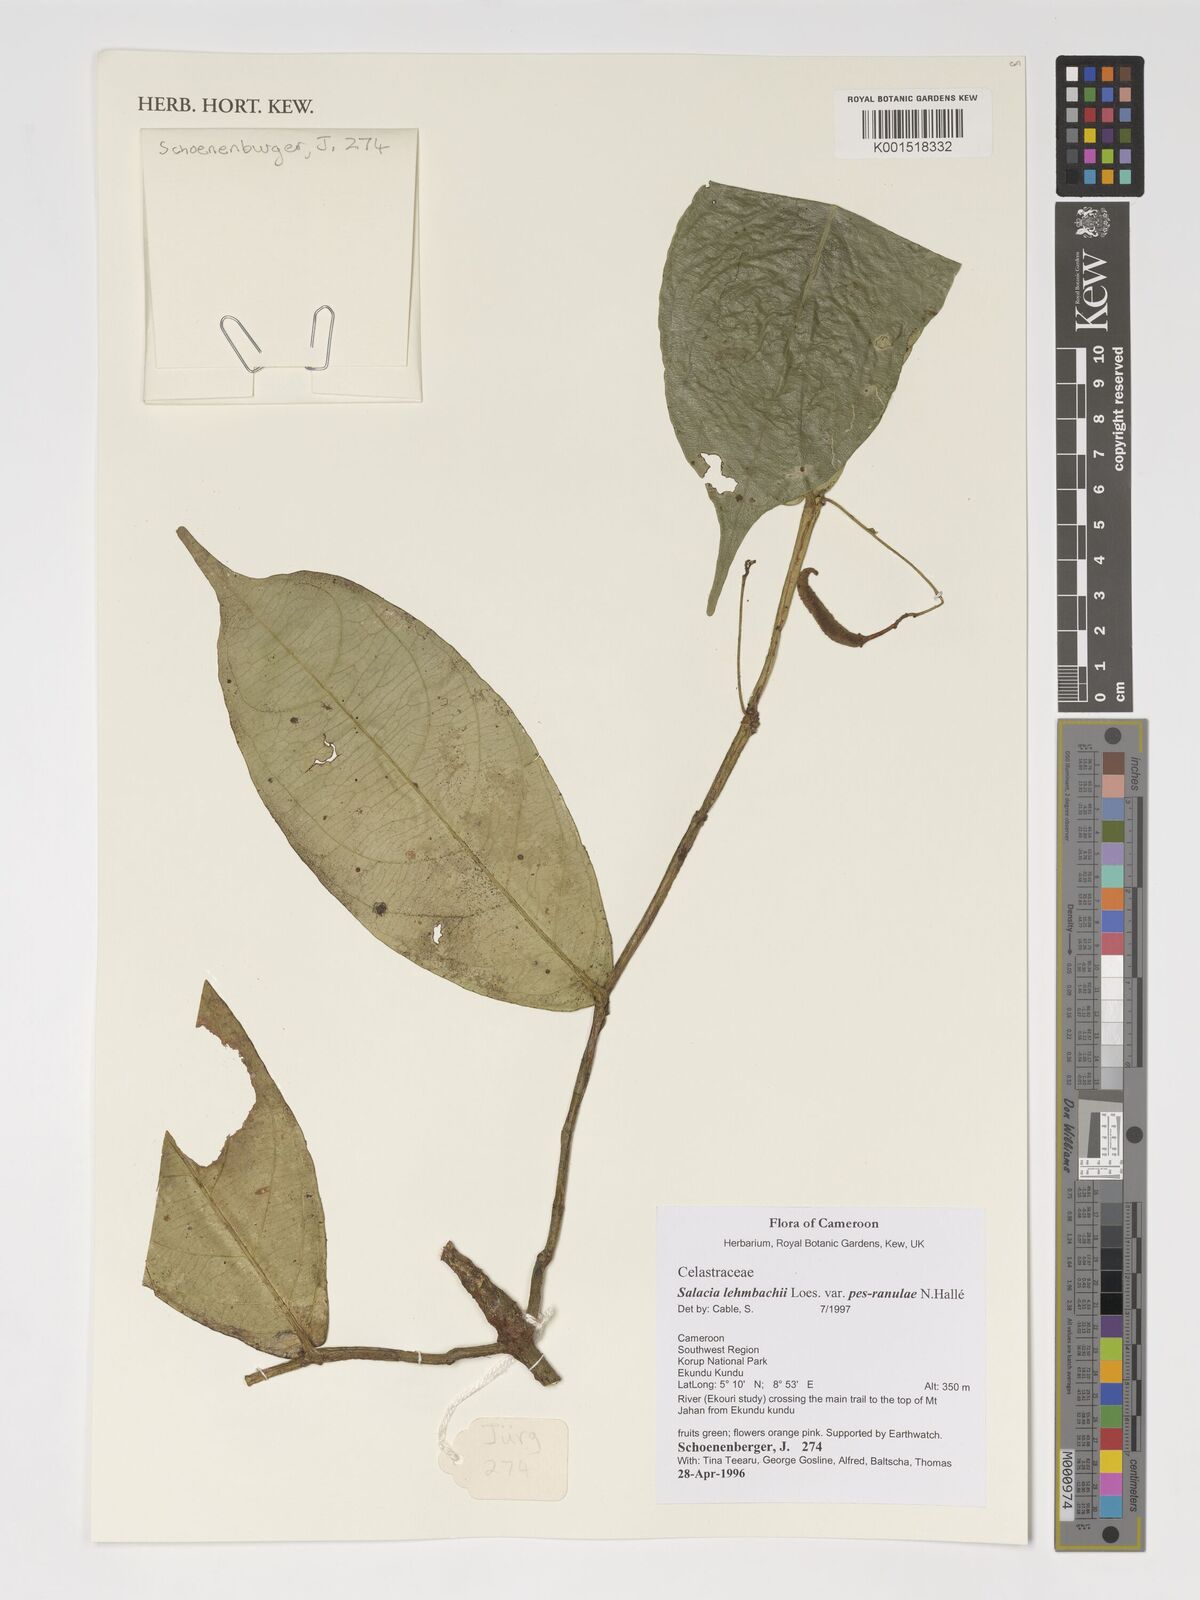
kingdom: Plantae
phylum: Tracheophyta
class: Magnoliopsida
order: Celastrales
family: Celastraceae
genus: Salacia
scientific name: Salacia lehmbachii
